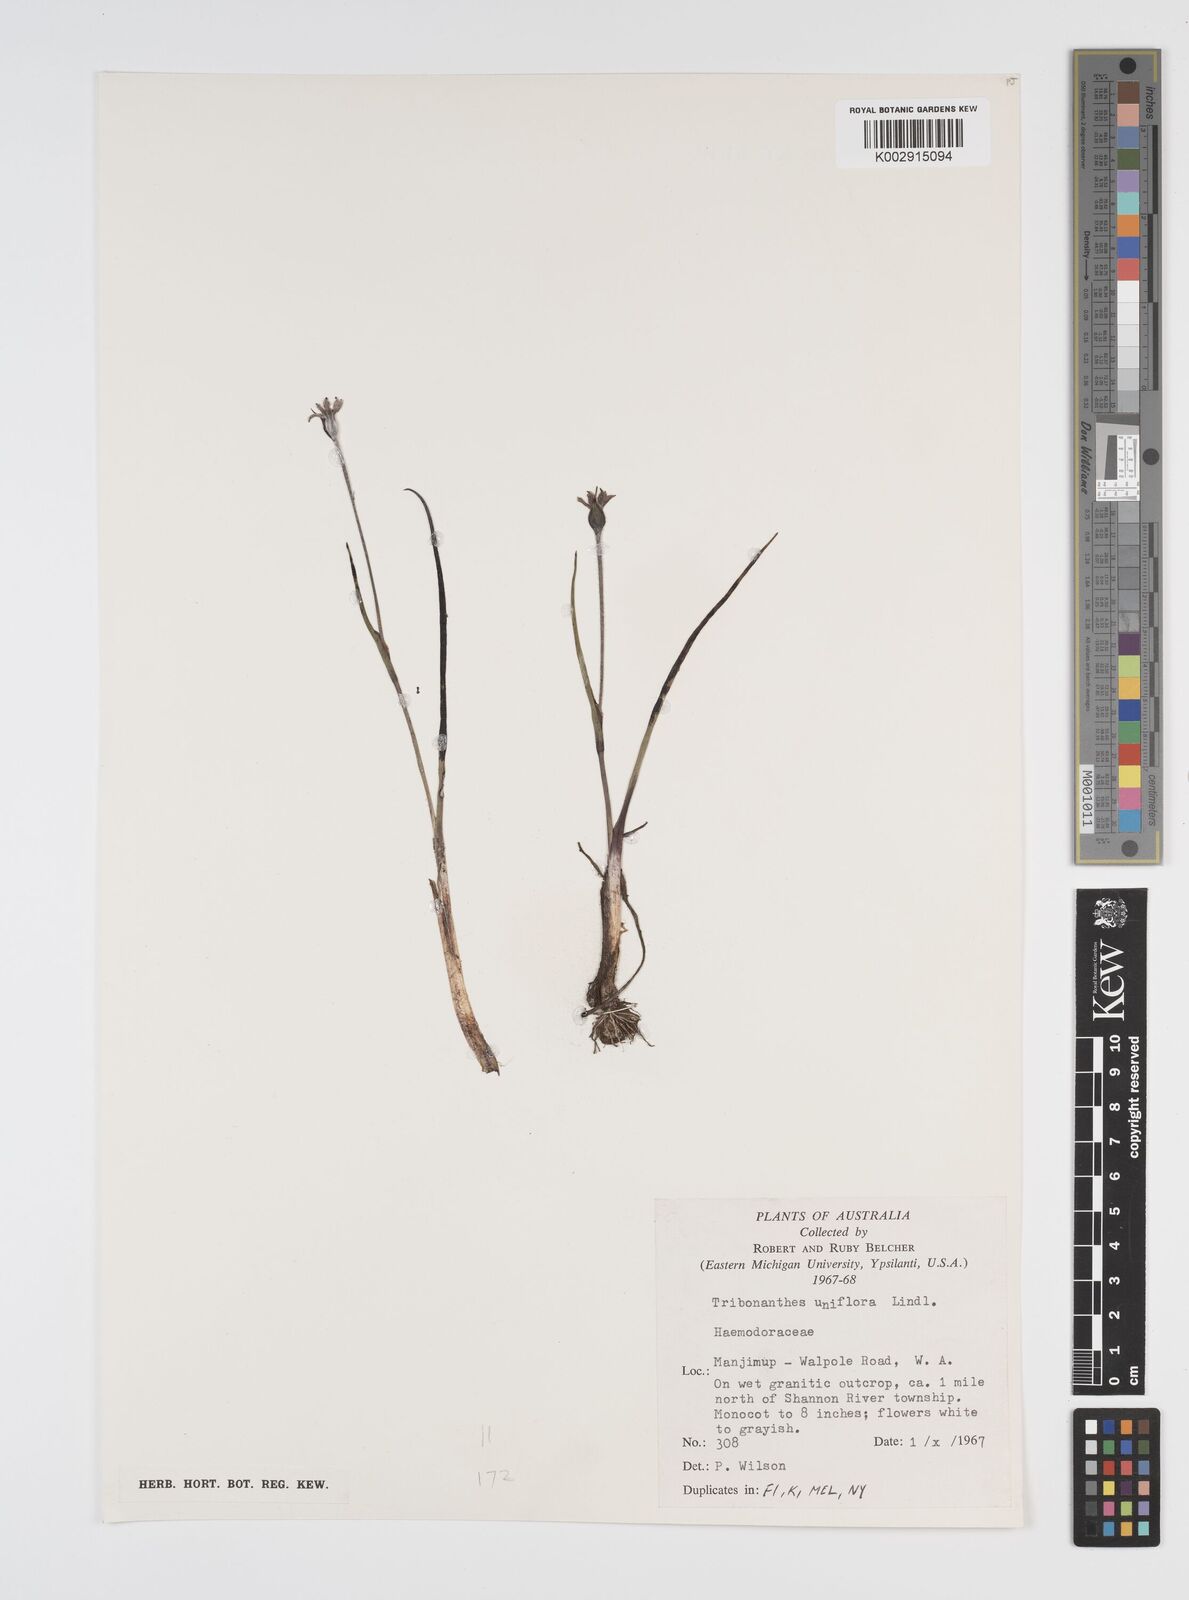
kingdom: Plantae
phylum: Tracheophyta
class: Liliopsida
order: Commelinales
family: Haemodoraceae
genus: Tribonanthes
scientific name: Tribonanthes uniflora
